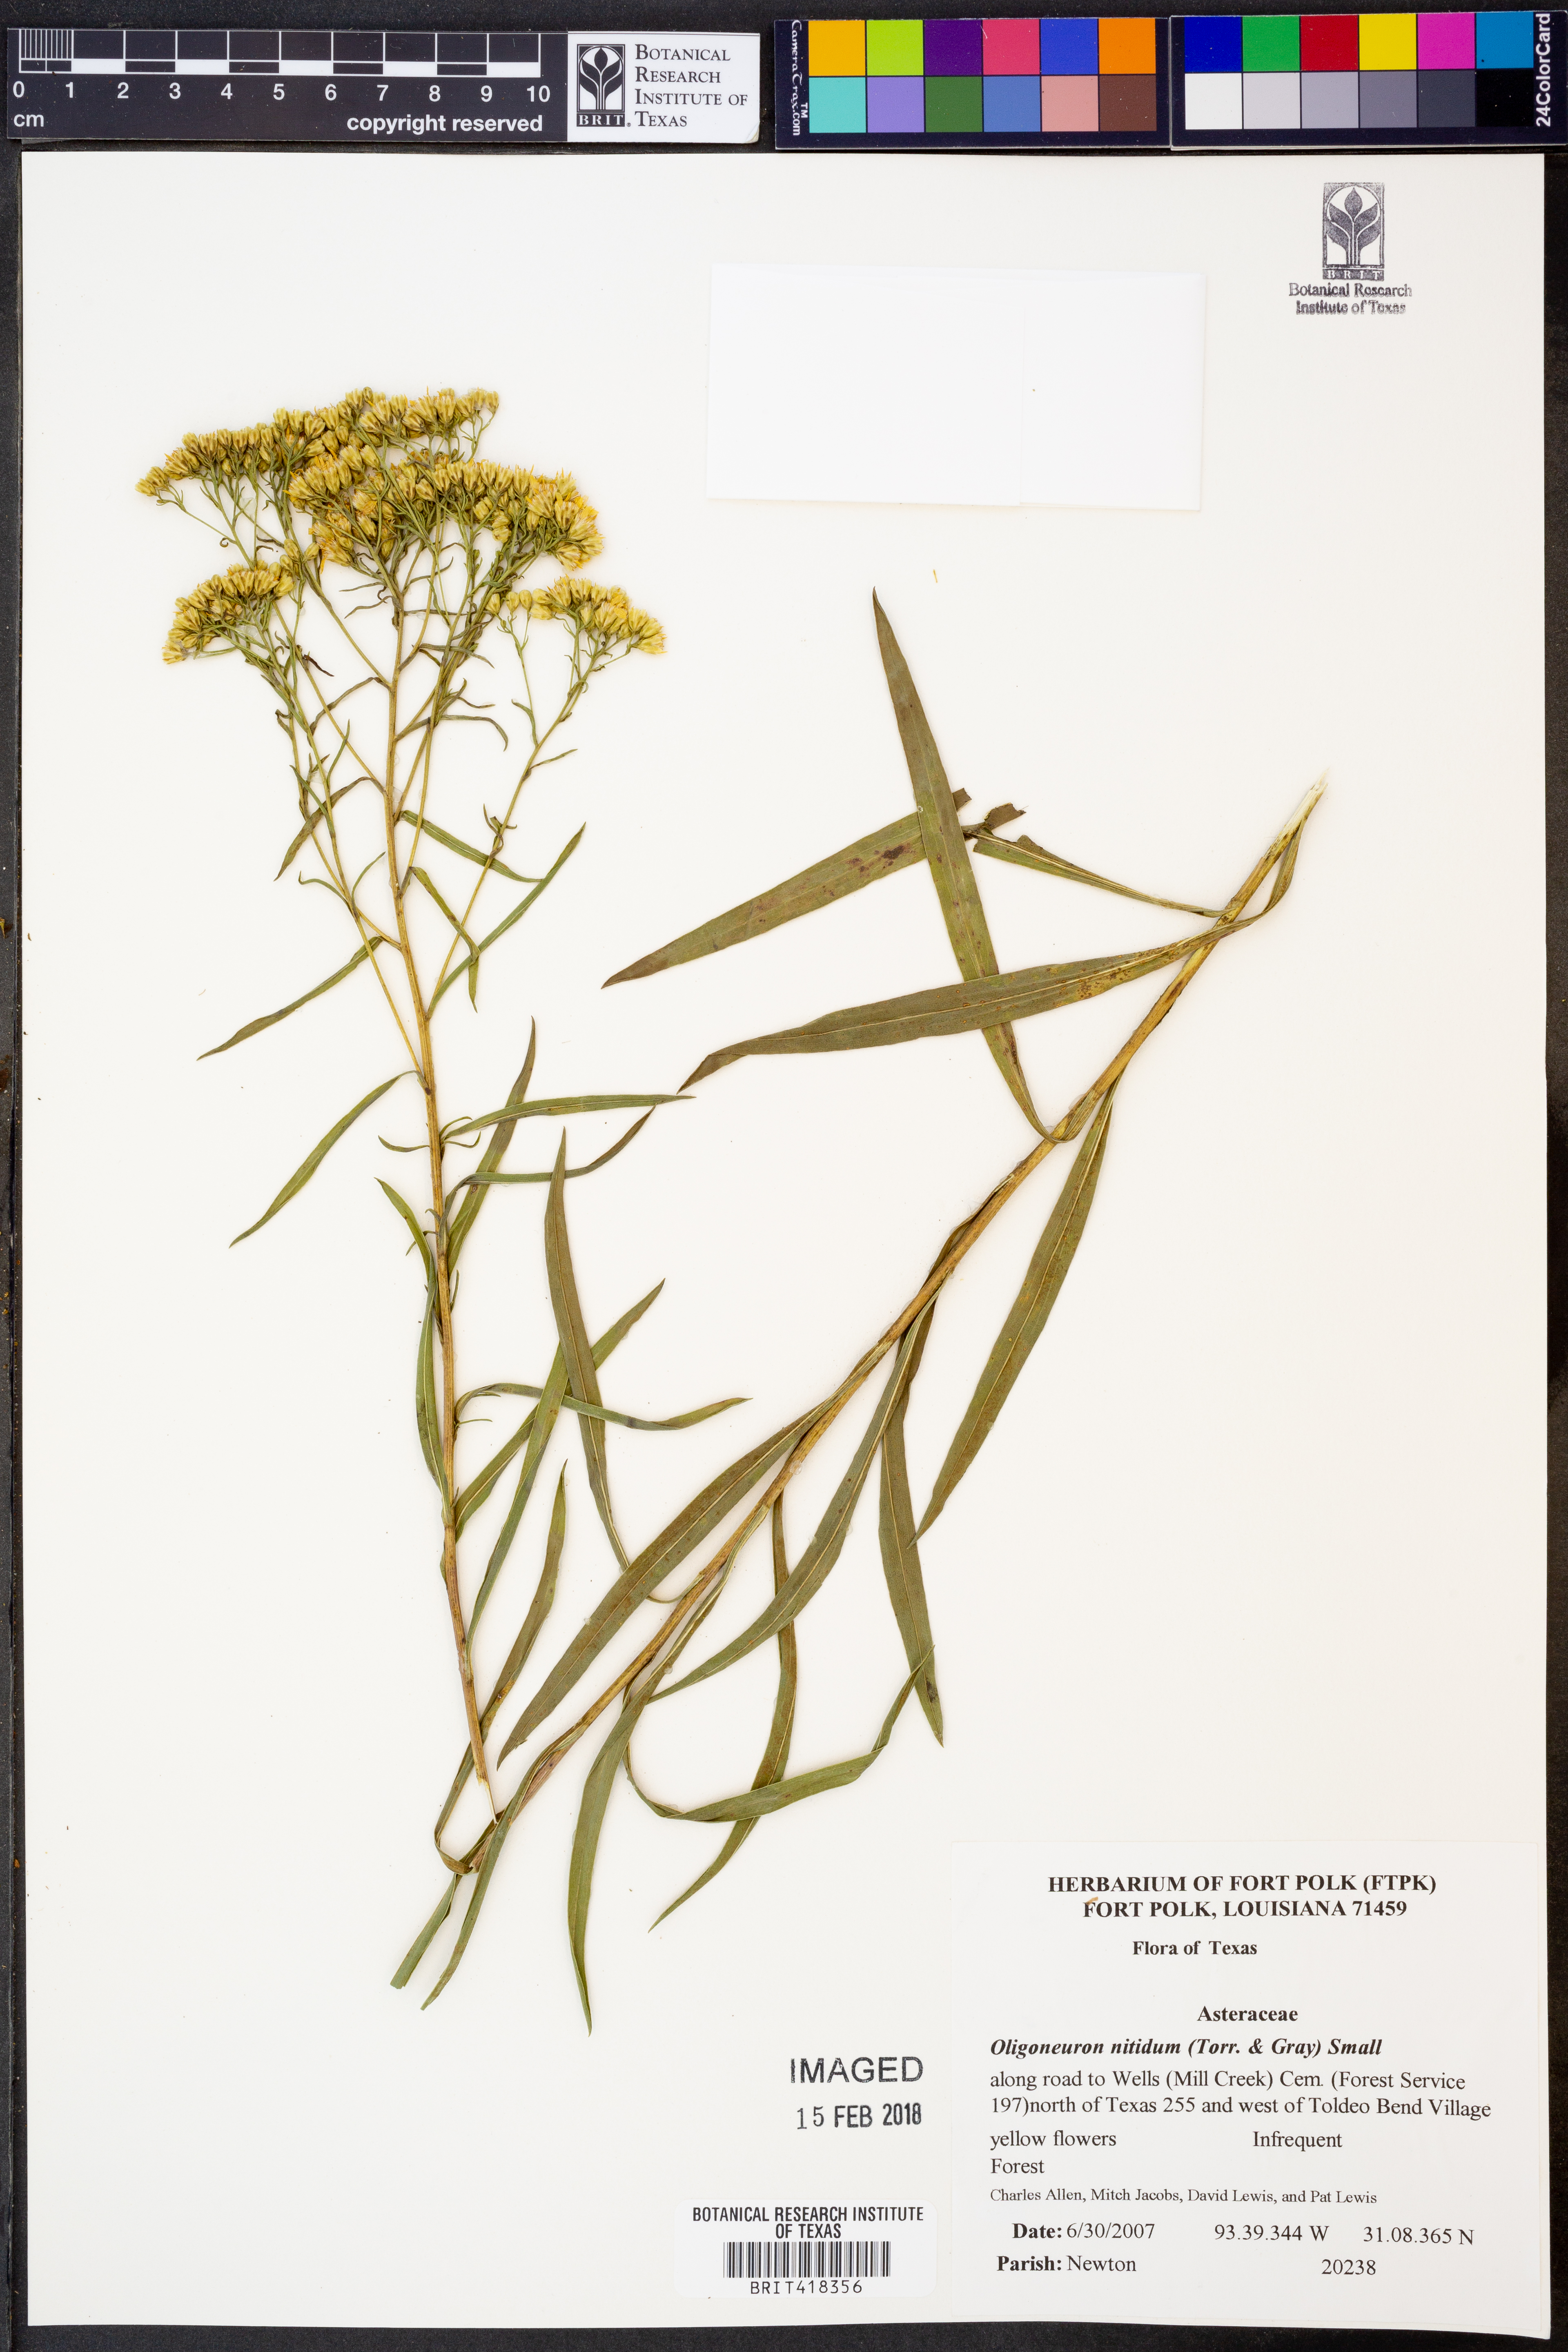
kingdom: Plantae
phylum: Tracheophyta
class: Magnoliopsida
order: Asterales
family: Asteraceae
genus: Solidago
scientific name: Solidago nitida
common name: Shiny goldenrod
